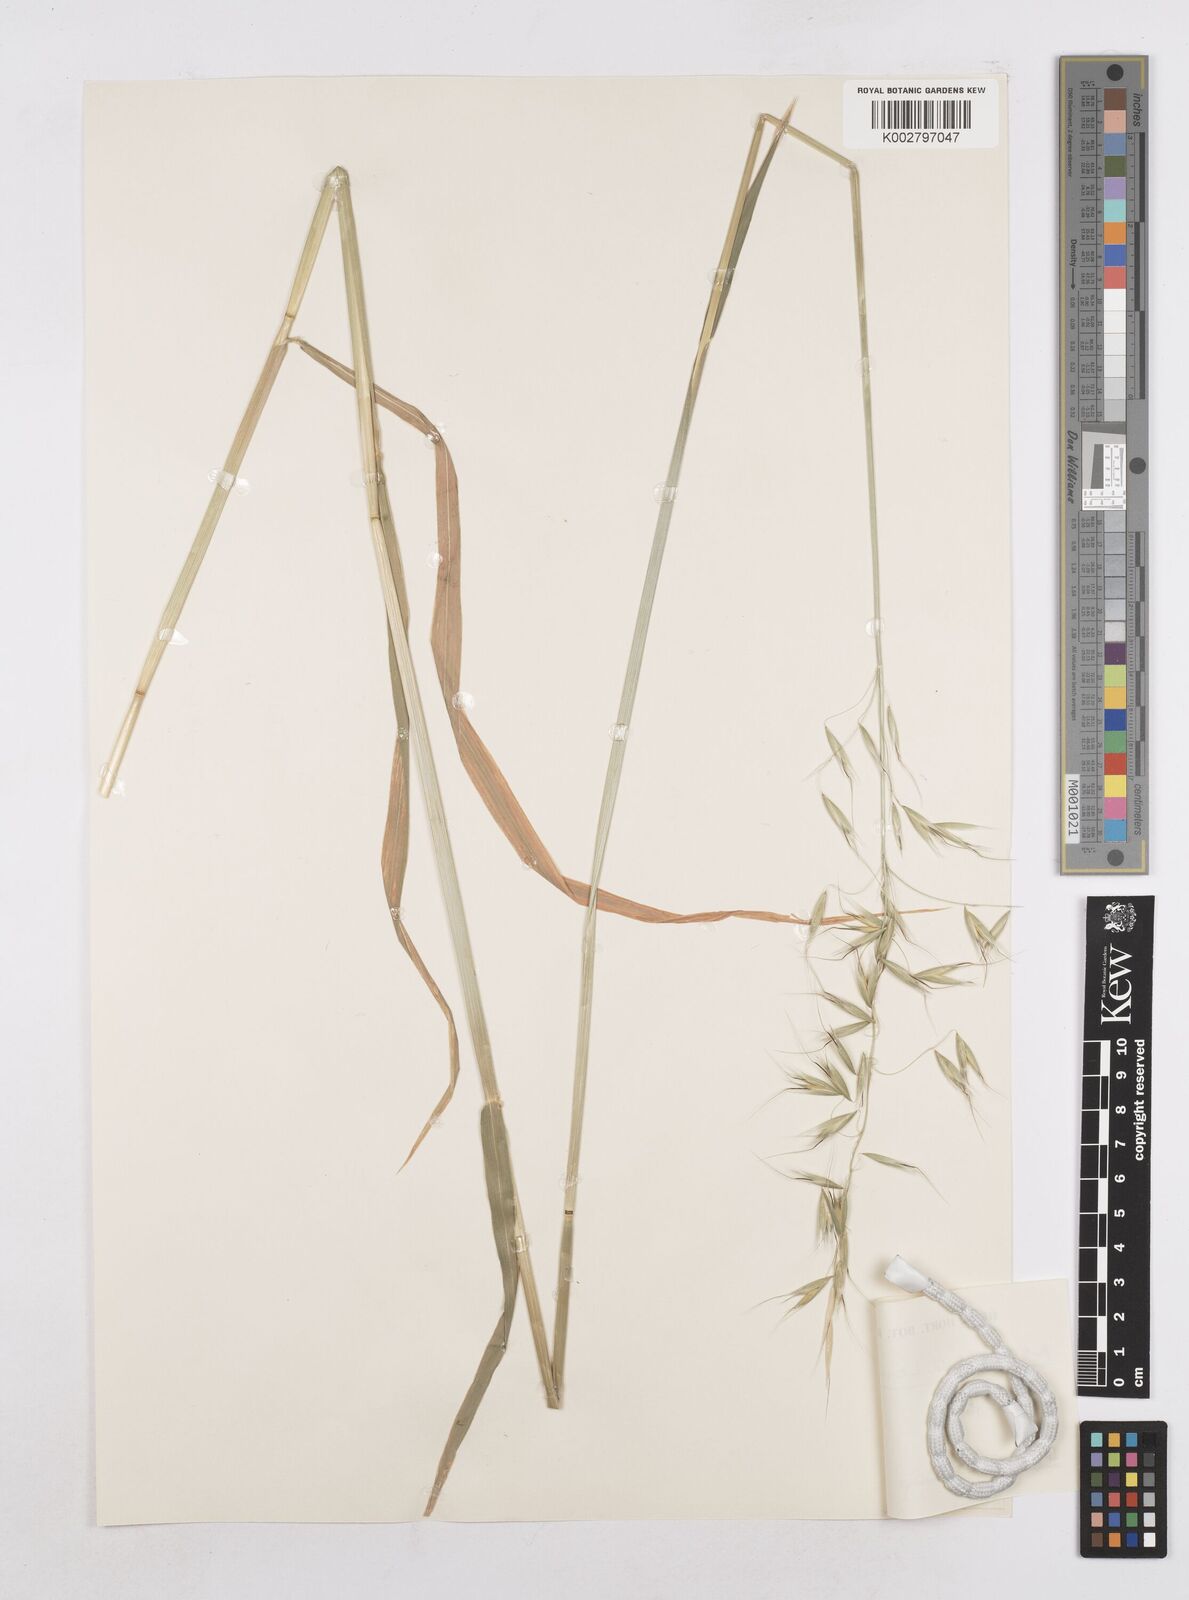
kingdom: Plantae
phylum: Tracheophyta
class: Liliopsida
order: Poales
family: Poaceae
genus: Avena
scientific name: Avena strigosa
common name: Bristle oat
